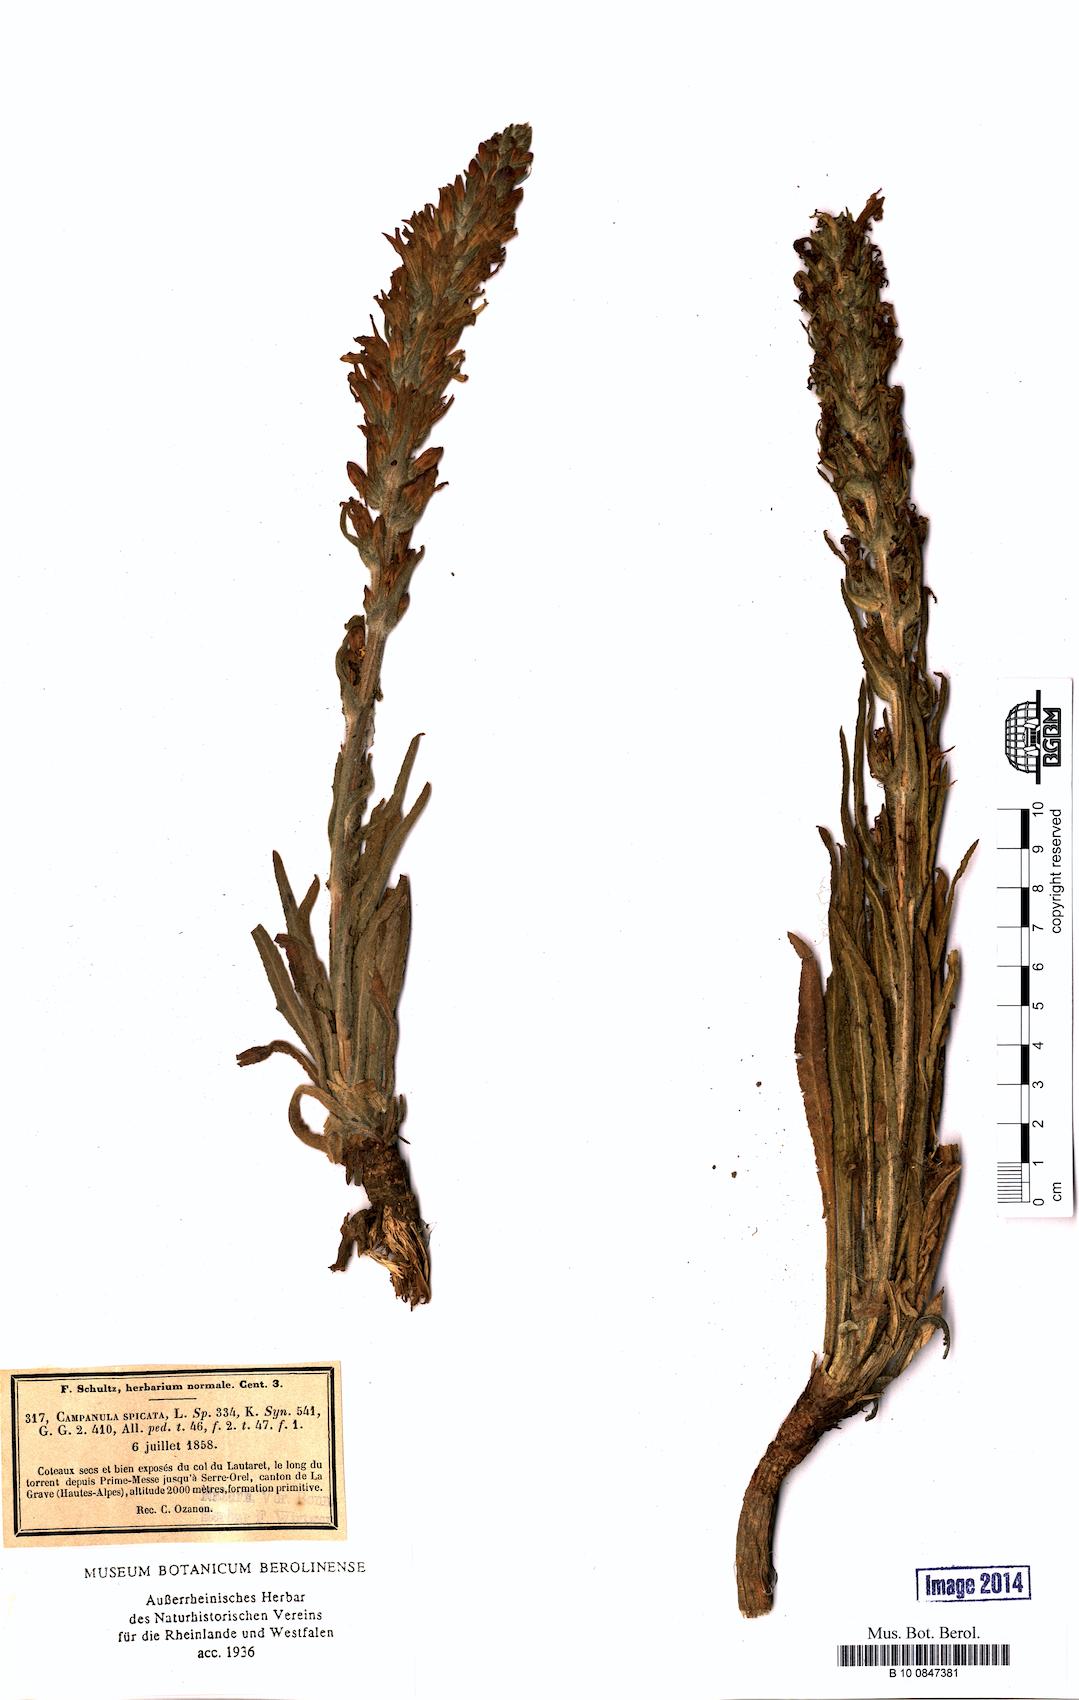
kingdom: Plantae
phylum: Tracheophyta
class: Magnoliopsida
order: Asterales
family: Campanulaceae
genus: Campanula
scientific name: Campanula spicata
